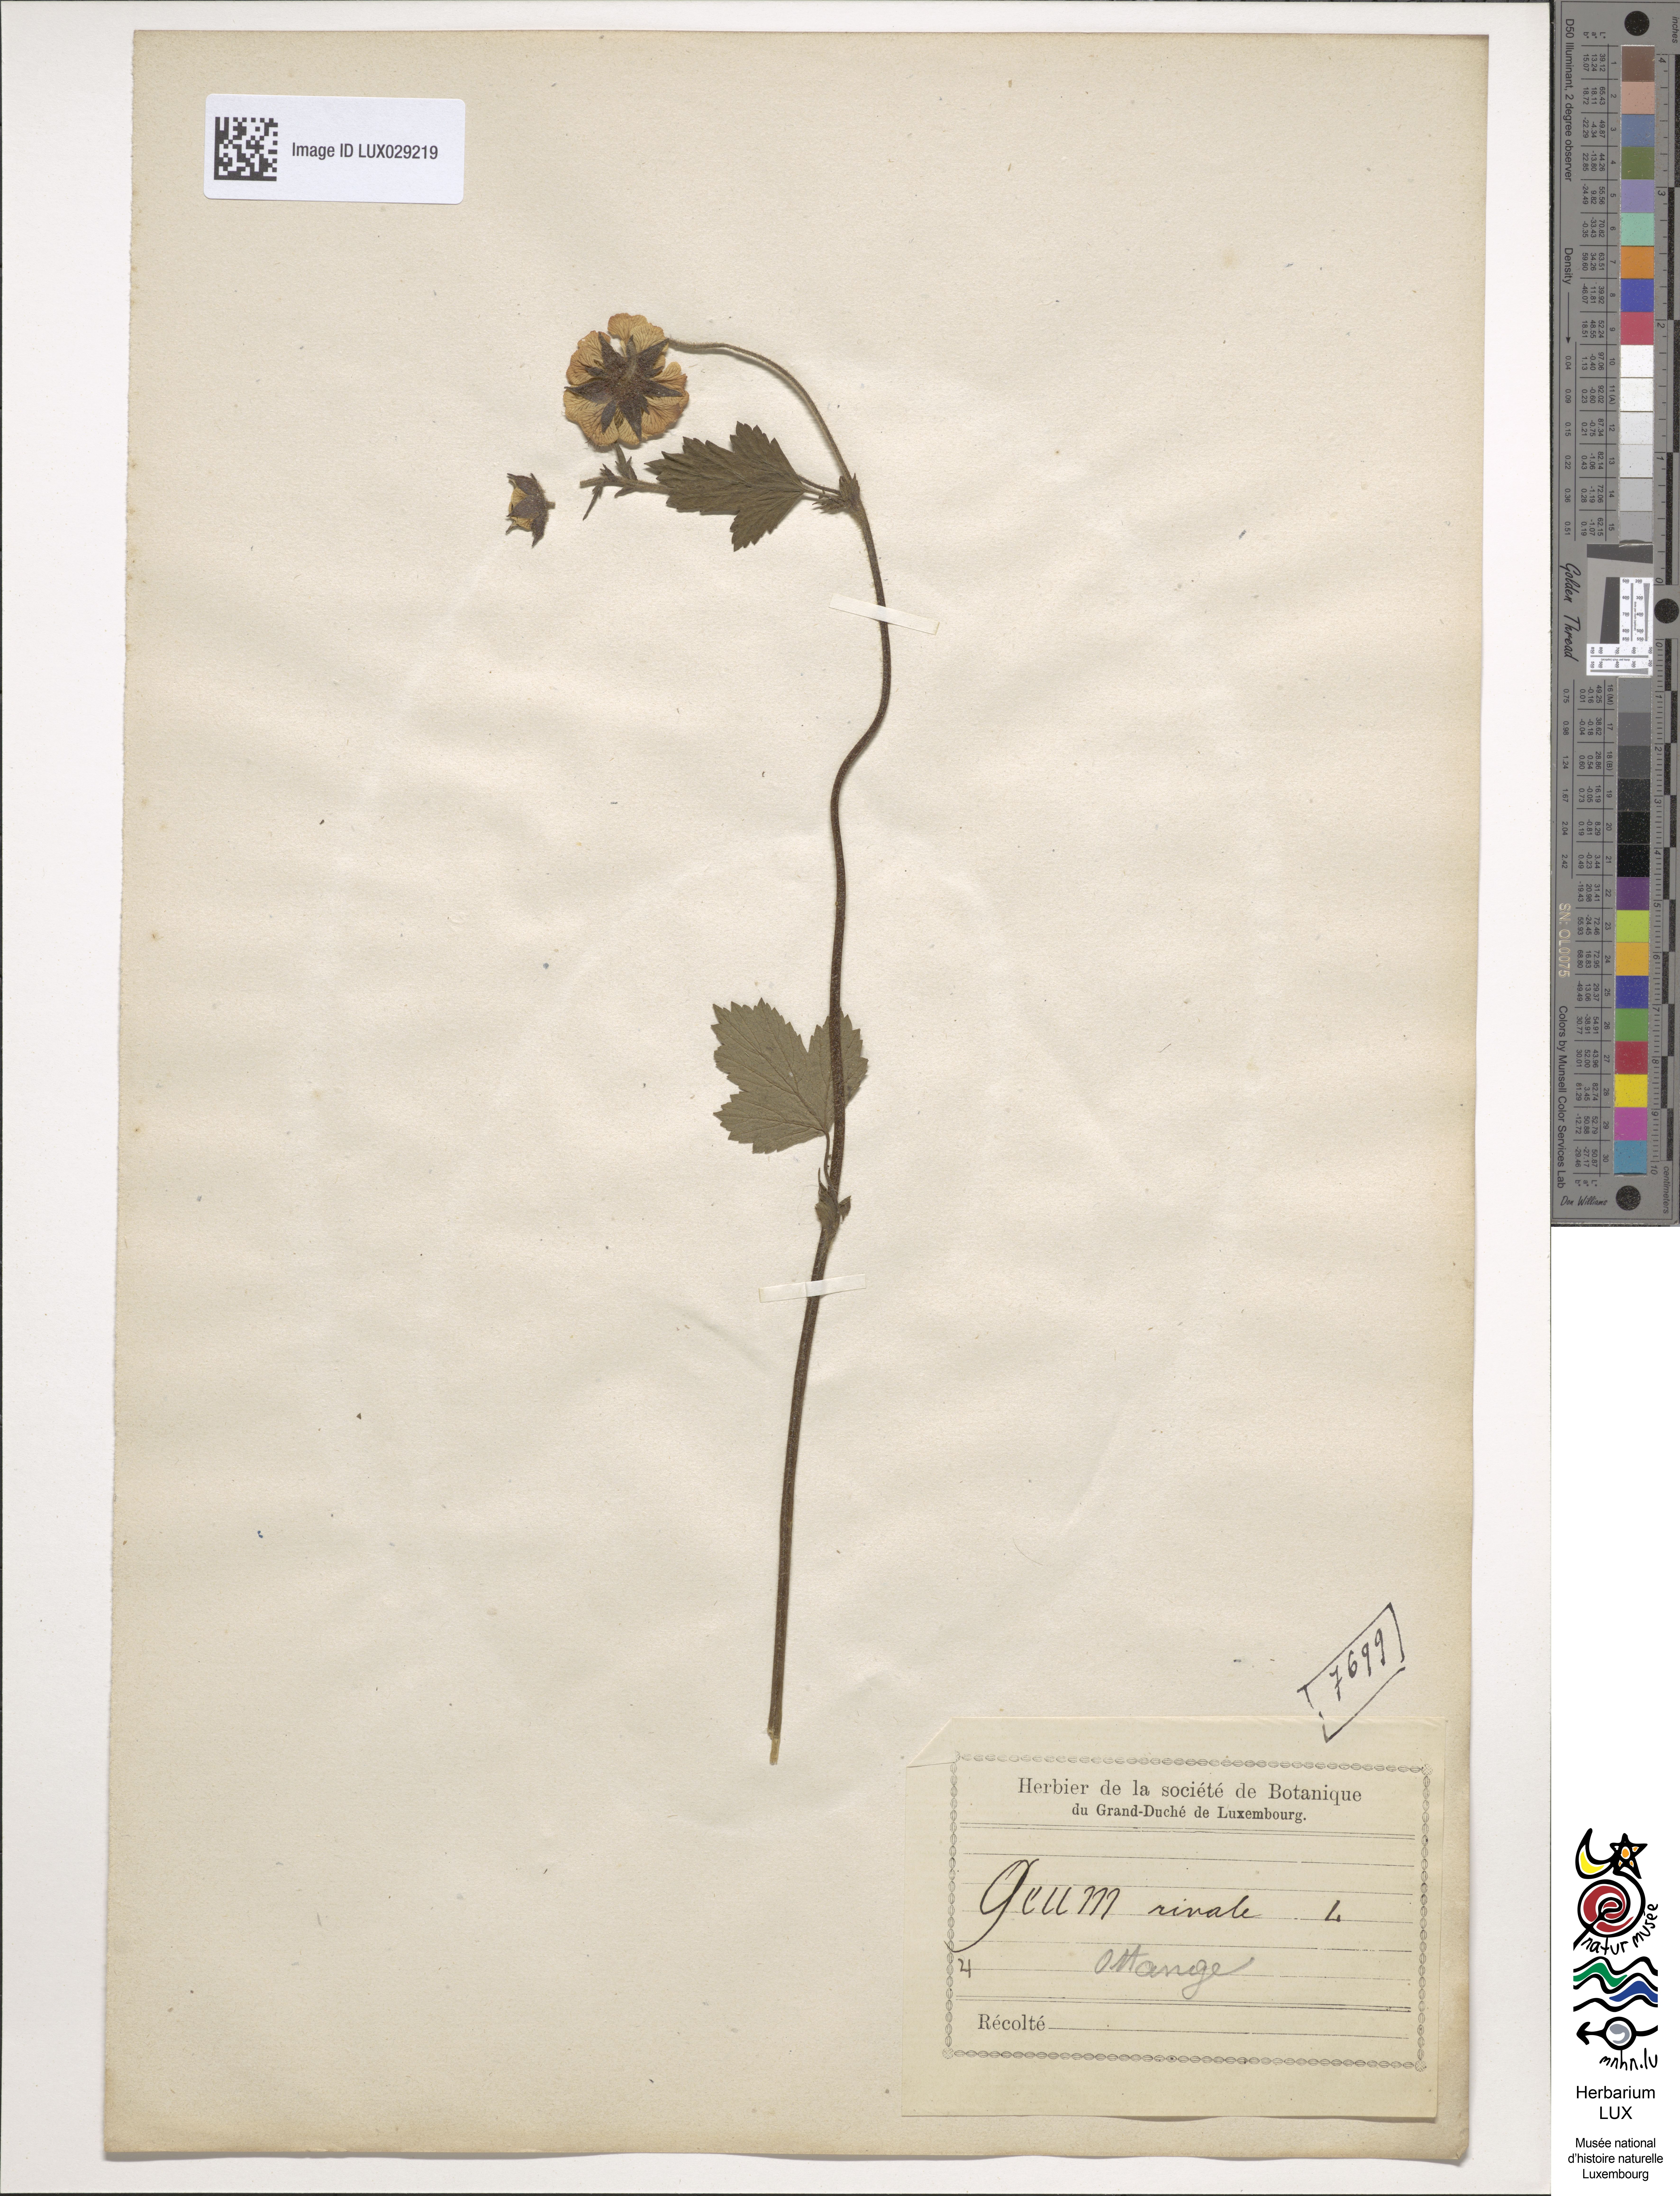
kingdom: Plantae
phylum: Tracheophyta
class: Magnoliopsida
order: Rosales
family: Rosaceae
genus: Geum
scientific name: Geum rivale
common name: Water avens
